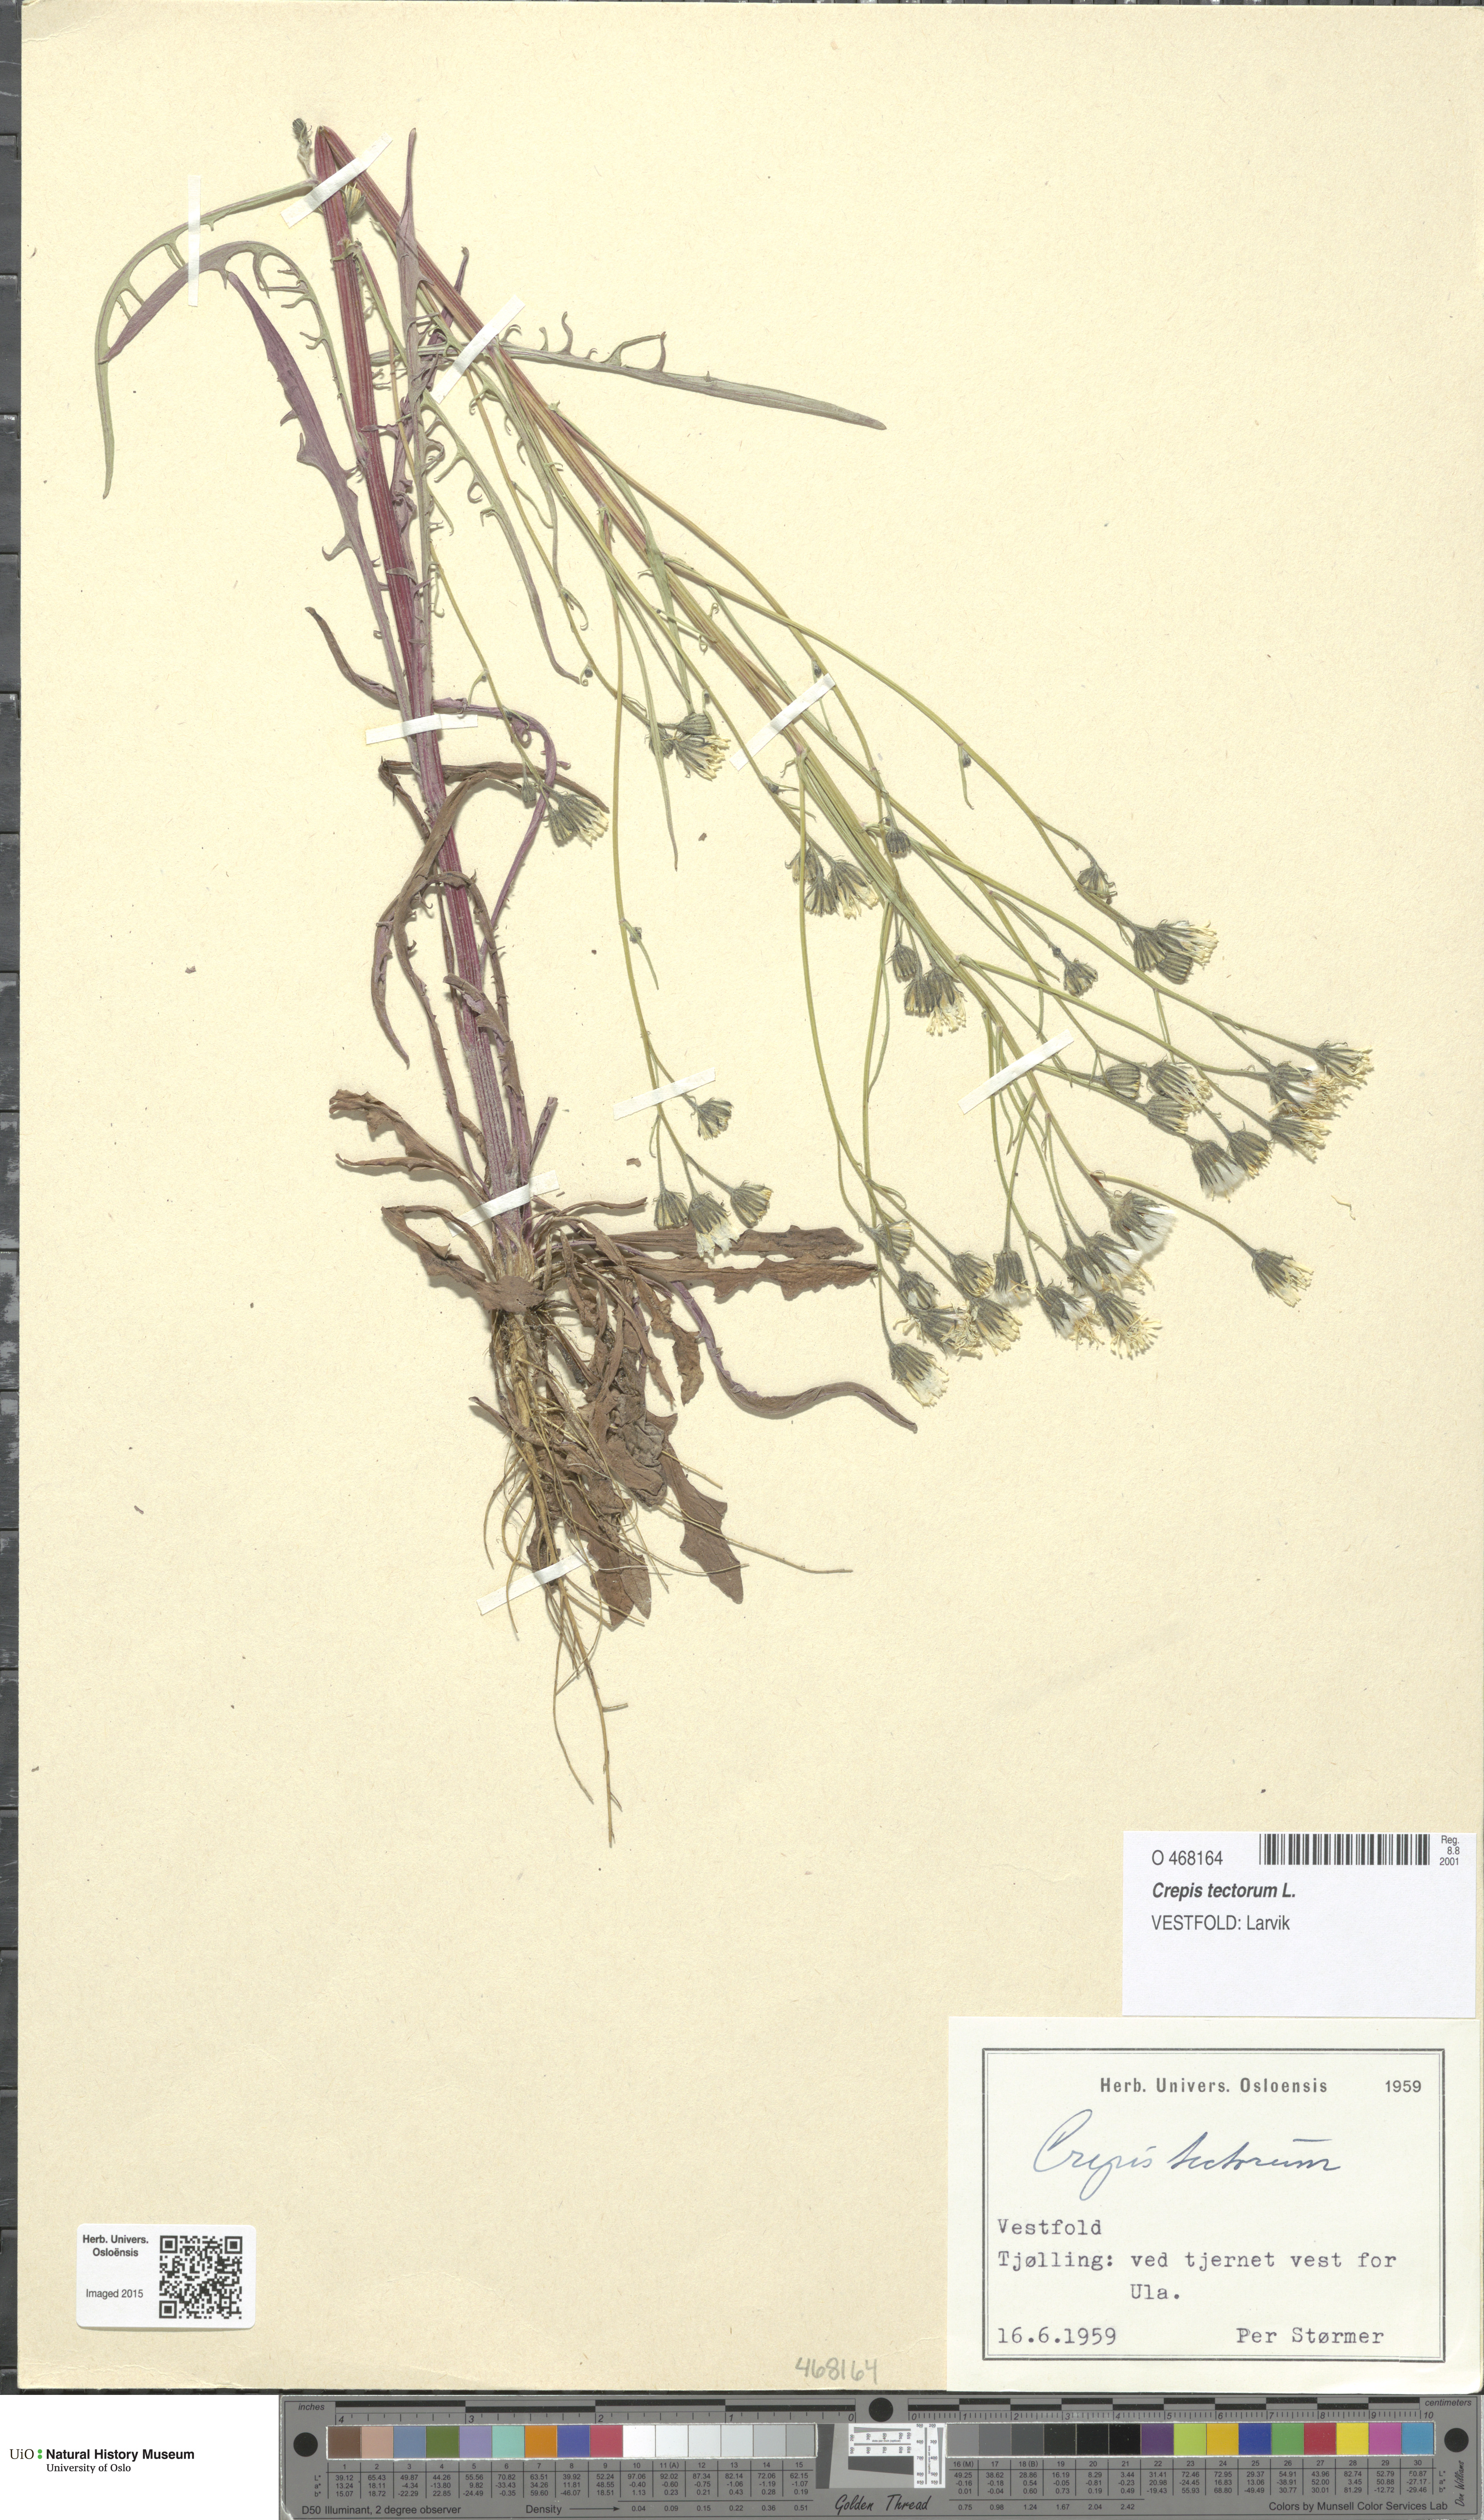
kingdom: Plantae
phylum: Tracheophyta
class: Magnoliopsida
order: Asterales
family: Asteraceae
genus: Crepis
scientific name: Crepis tectorum
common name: Narrow-leaved hawk's-beard
